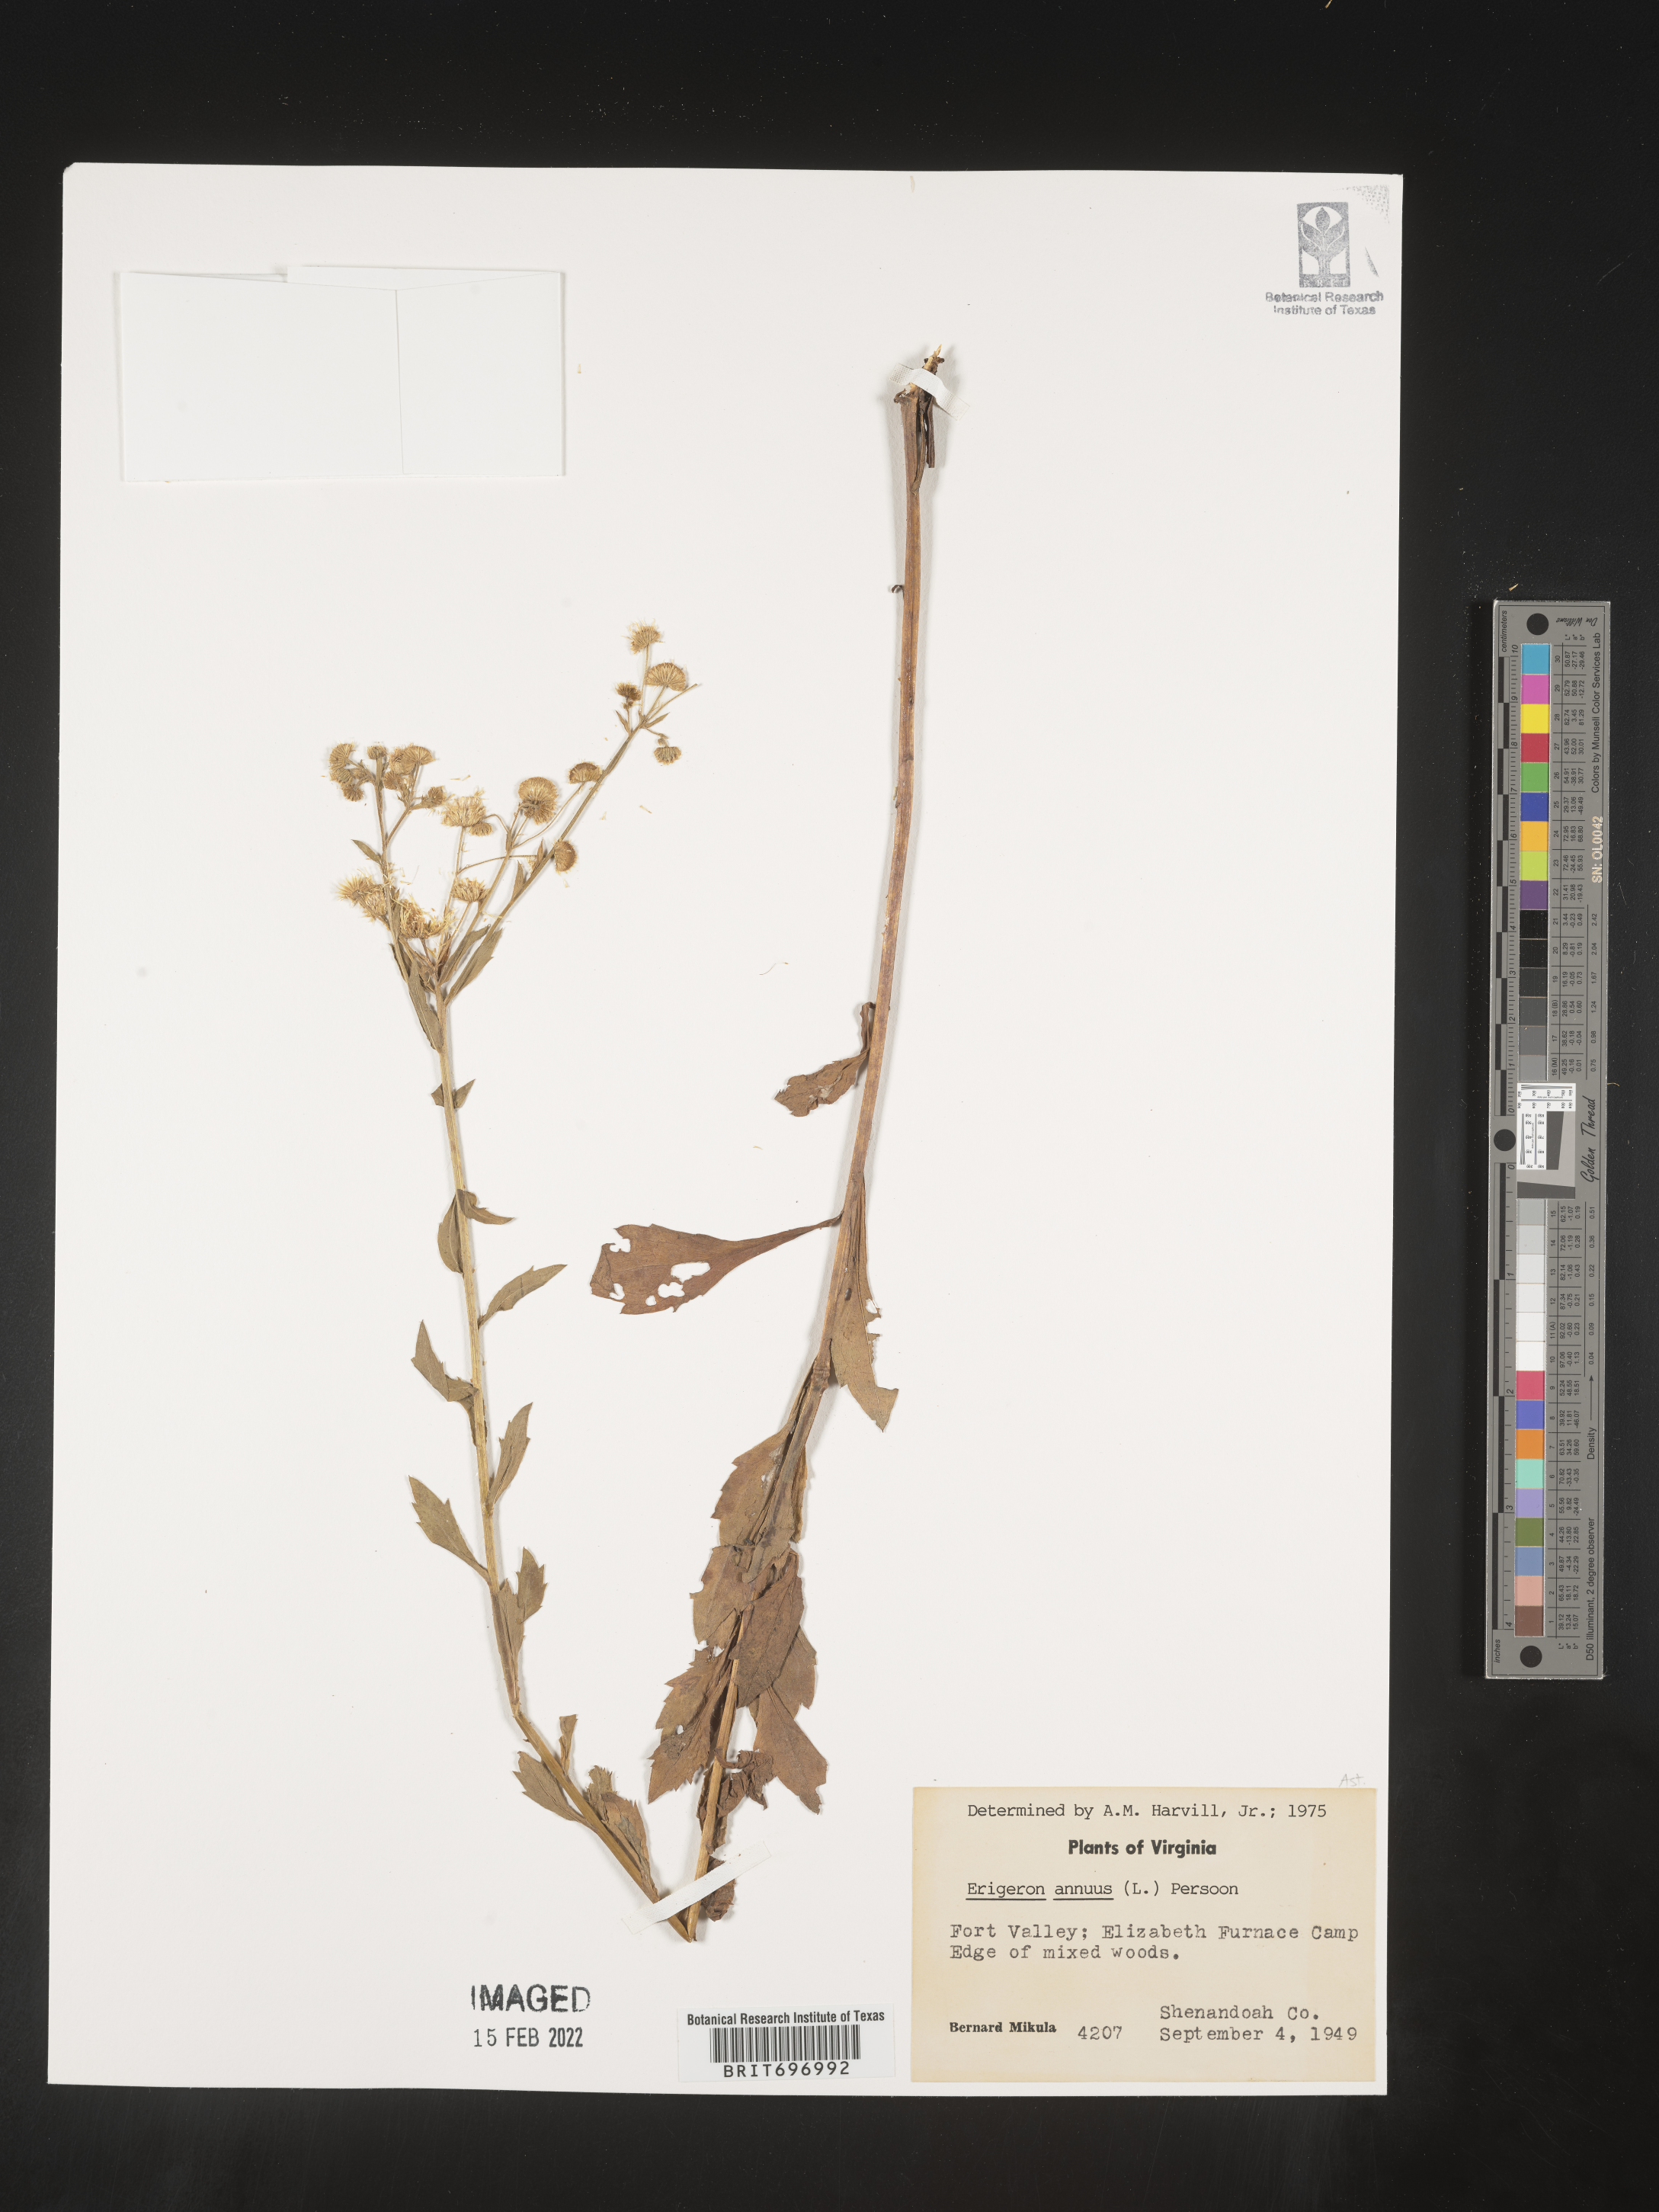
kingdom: Plantae
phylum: Tracheophyta
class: Magnoliopsida
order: Asterales
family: Asteraceae
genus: Erigeron
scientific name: Erigeron annuus
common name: Tall fleabane
